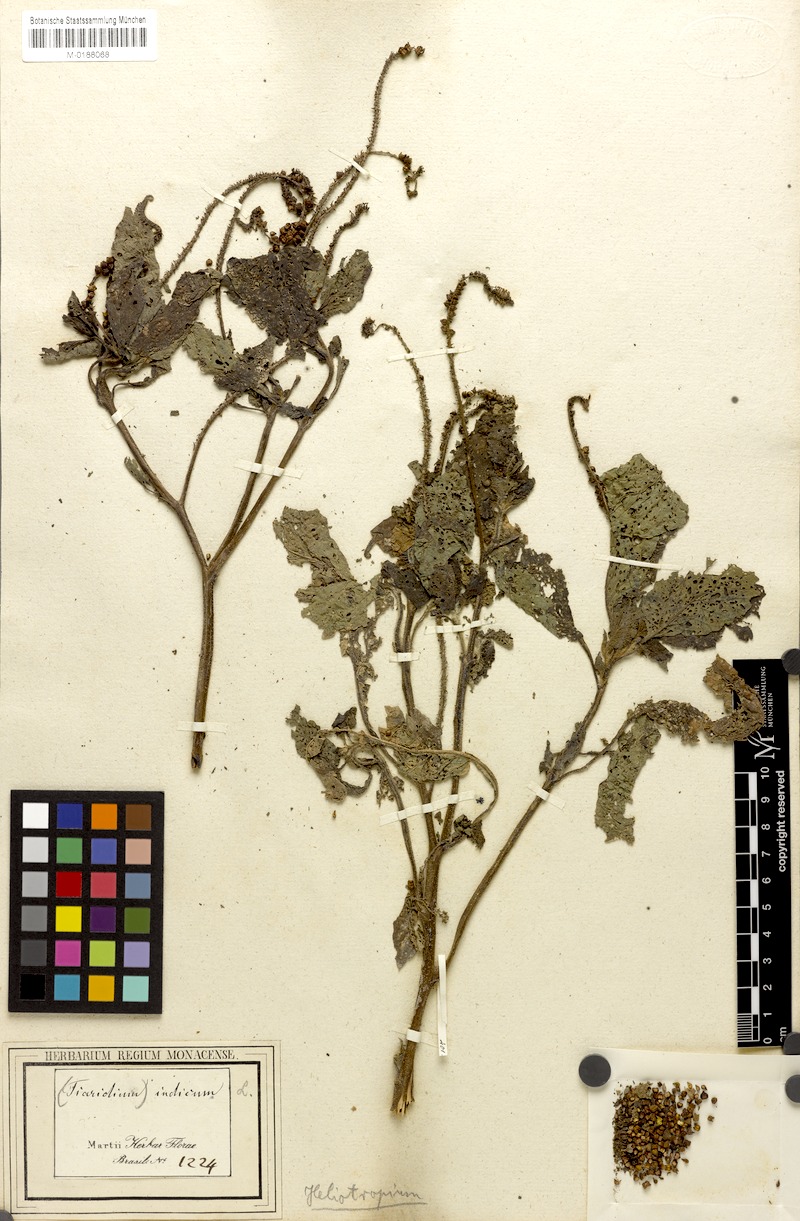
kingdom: Plantae
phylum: Tracheophyta
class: Magnoliopsida
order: Boraginales
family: Heliotropiaceae
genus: Heliotropium
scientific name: Heliotropium indicum
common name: Indian heliotrope
